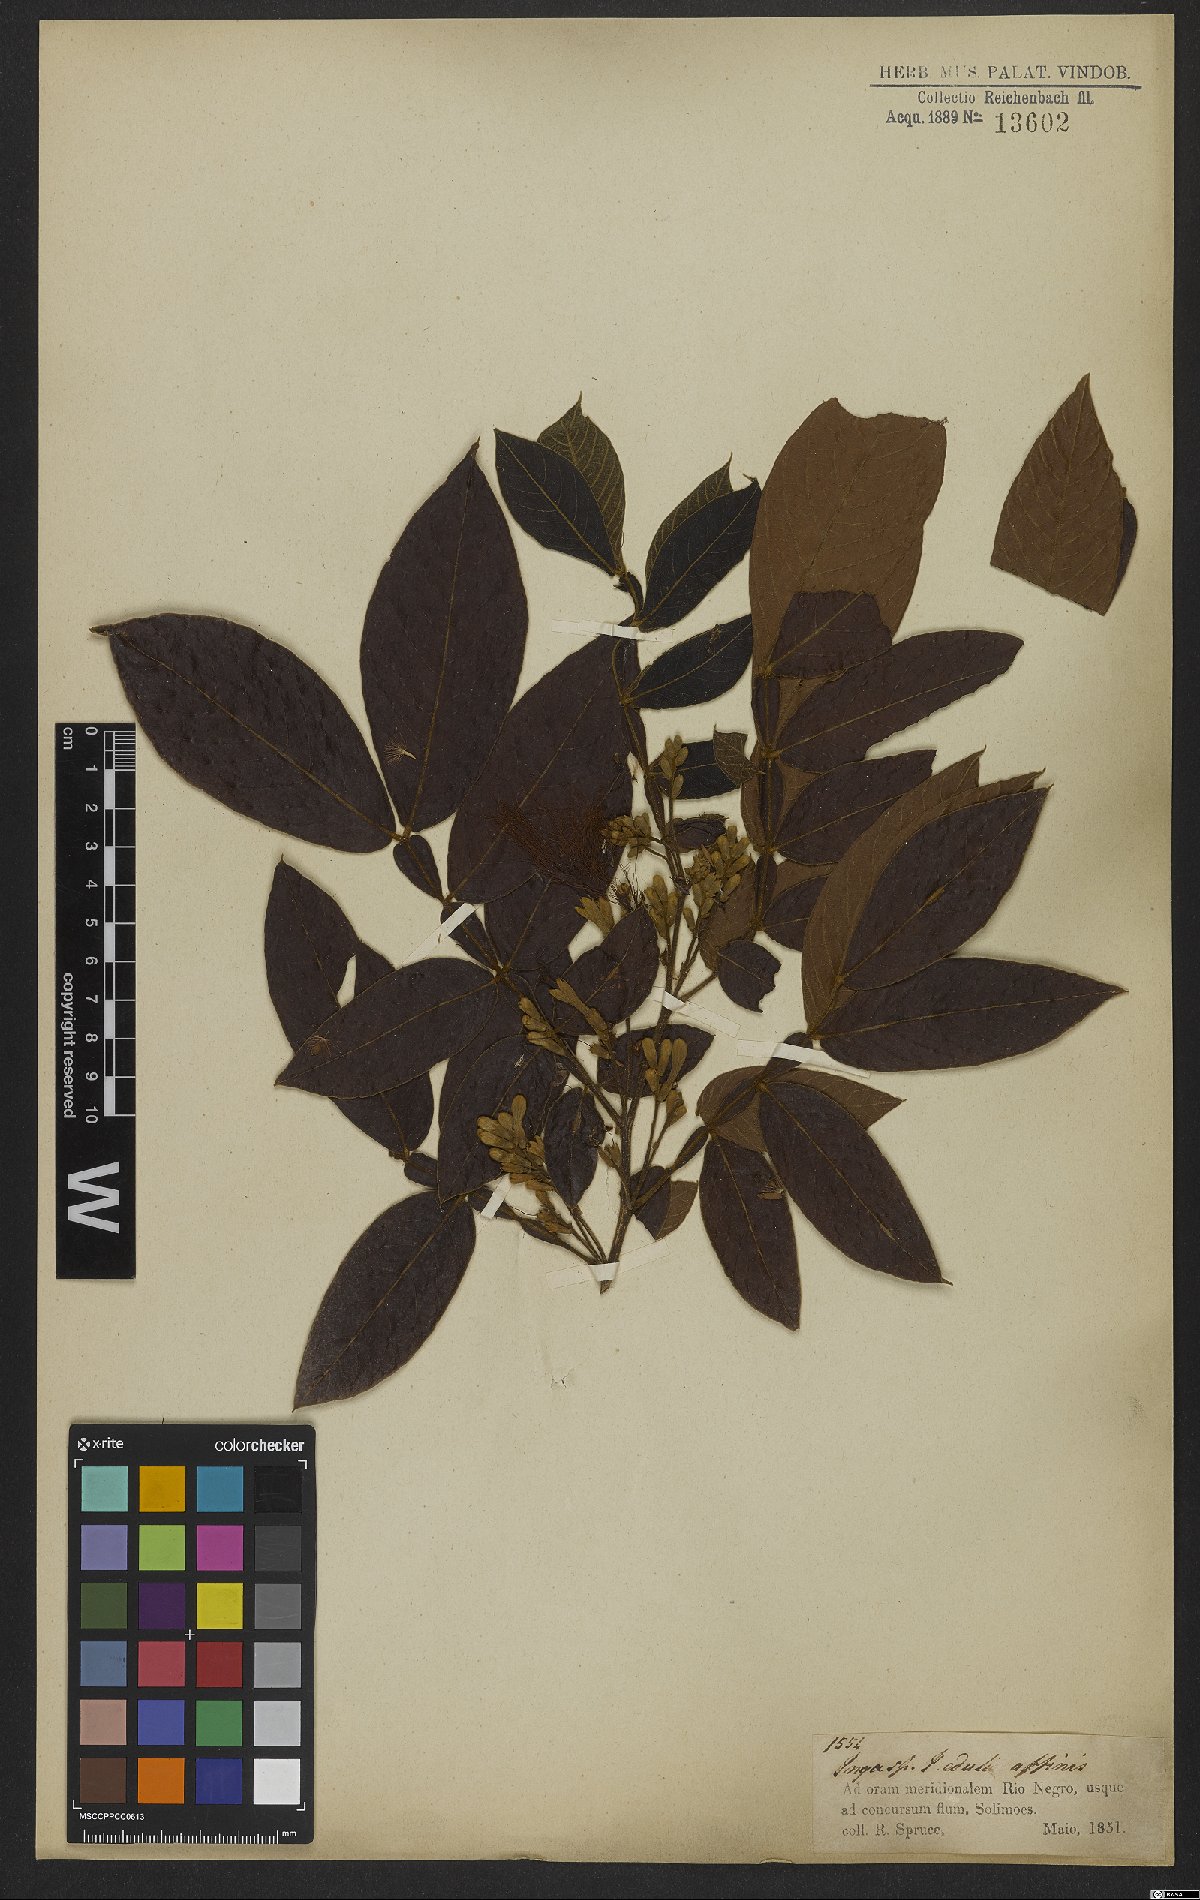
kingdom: Plantae
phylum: Tracheophyta
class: Magnoliopsida
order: Fabales
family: Fabaceae
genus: Inga
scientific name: Inga edulis
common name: Ice cream bean
